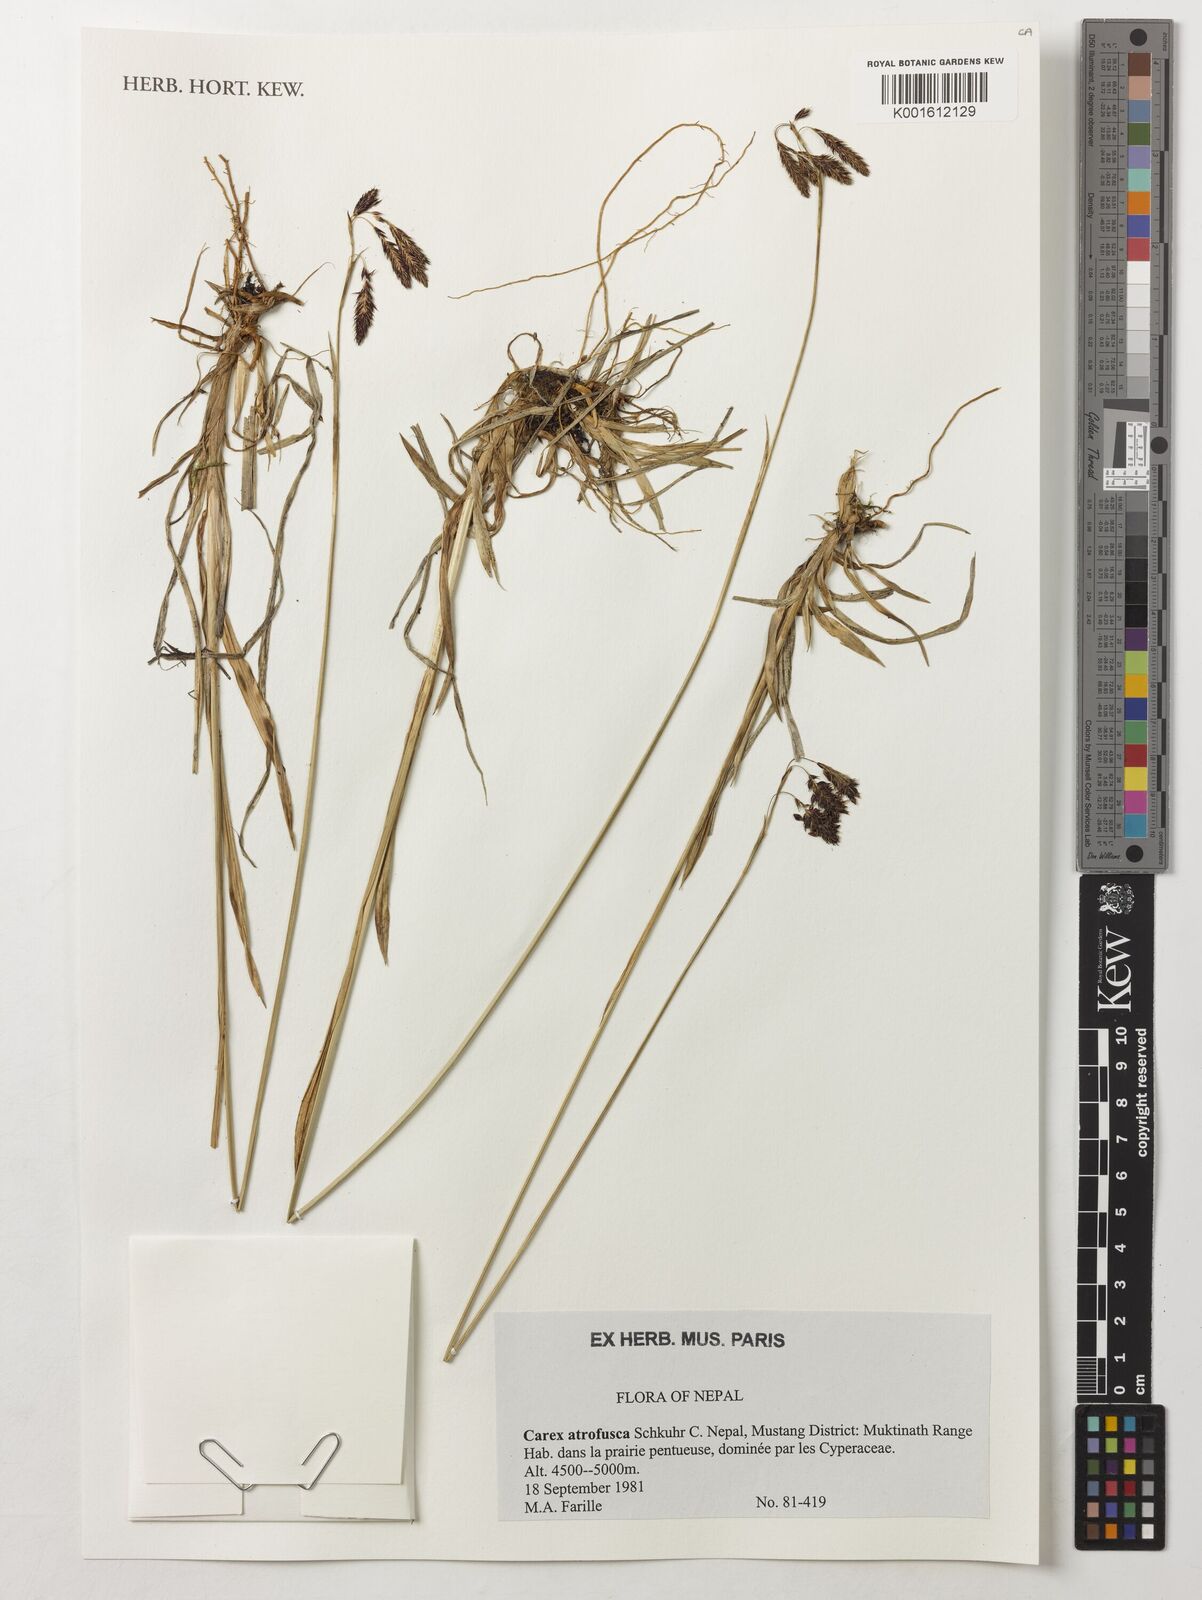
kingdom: Plantae
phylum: Tracheophyta
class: Liliopsida
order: Poales
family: Cyperaceae
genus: Carex
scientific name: Carex atrofusca
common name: Scorched alpine-sedge
